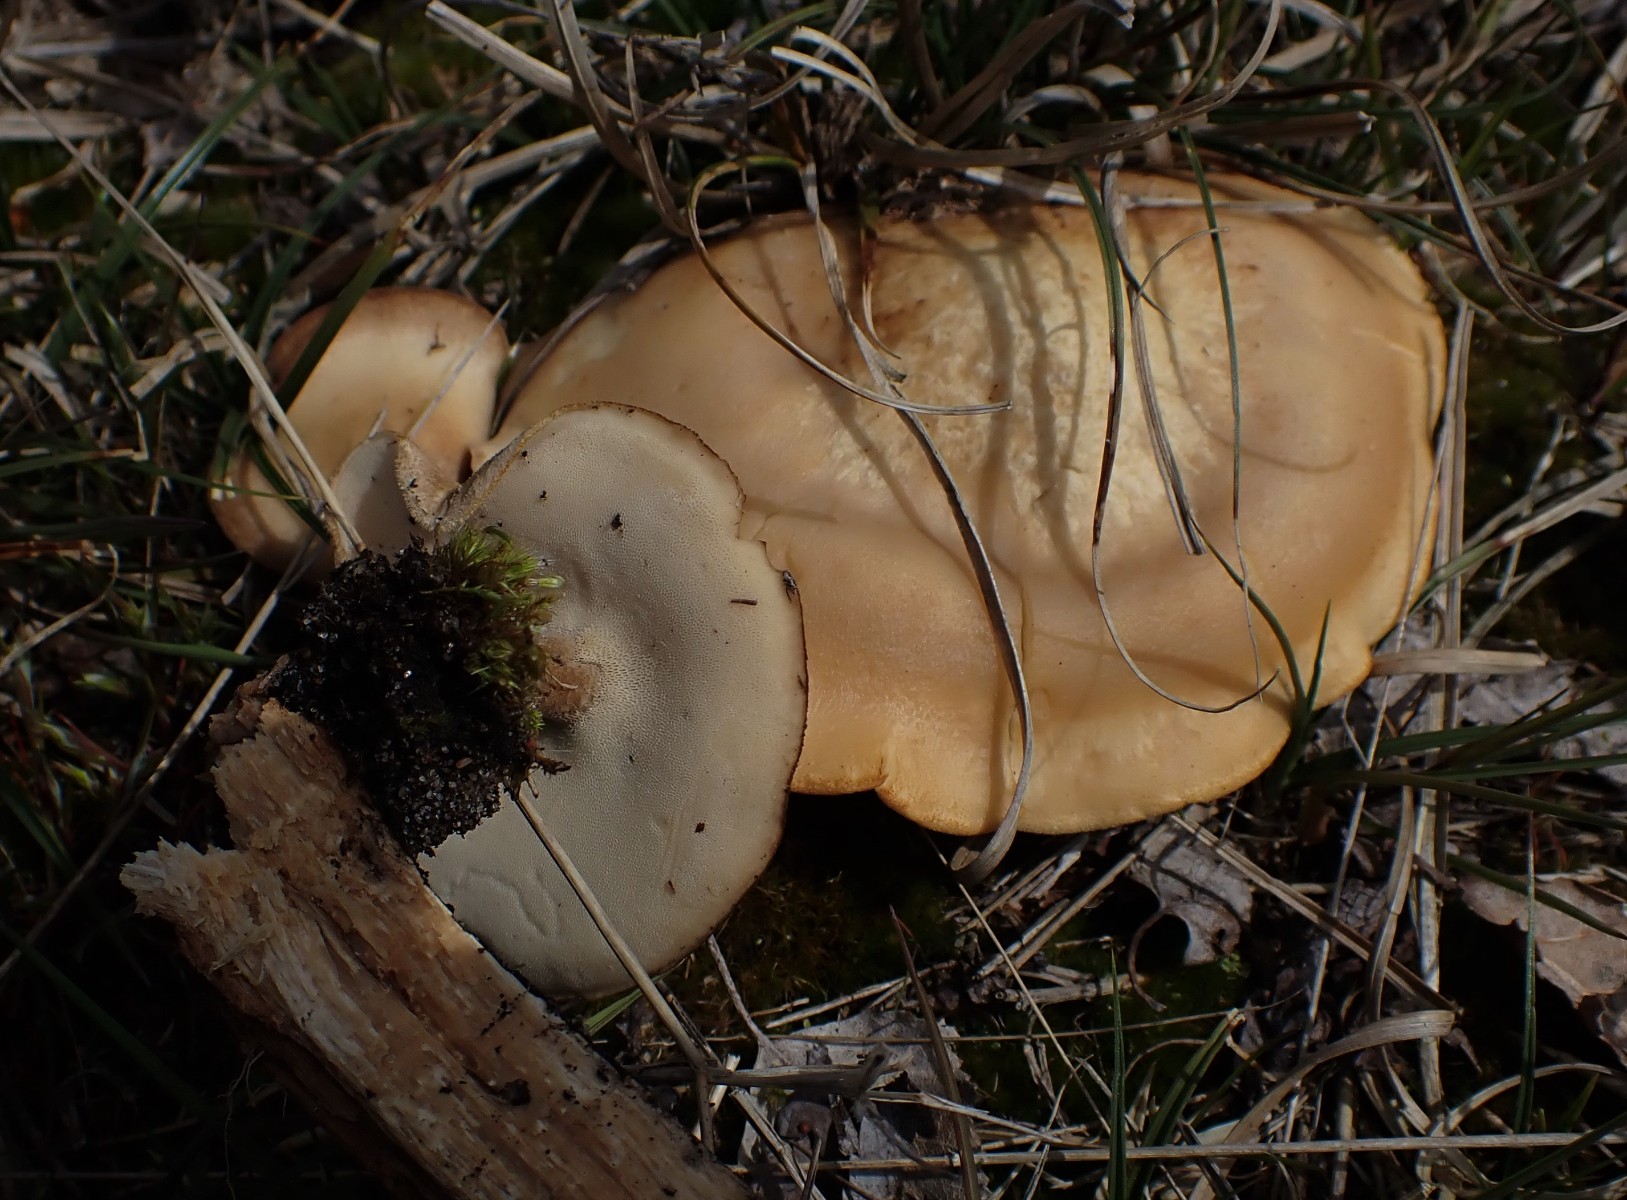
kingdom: Fungi
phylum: Basidiomycota
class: Agaricomycetes
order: Polyporales
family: Polyporaceae
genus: Lentinus
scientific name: Lentinus substrictus
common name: forårs-stilkporesvamp
